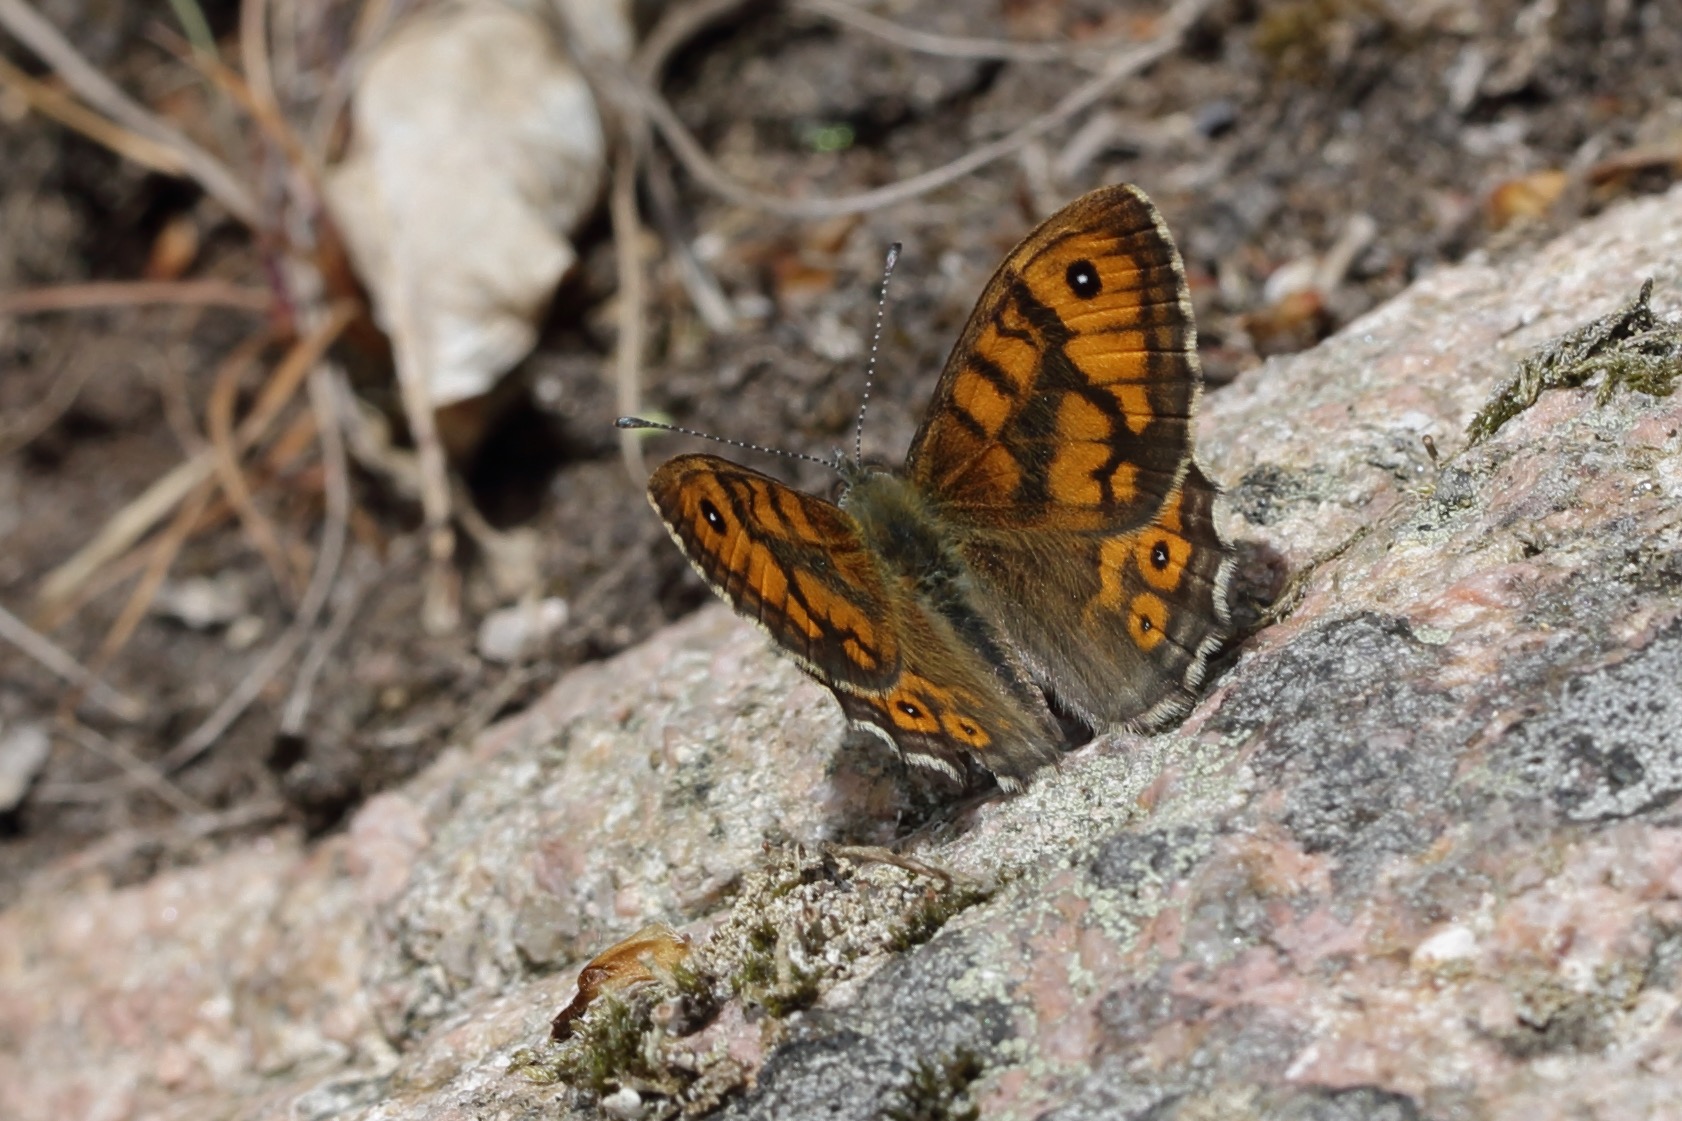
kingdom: Animalia
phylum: Arthropoda
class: Insecta
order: Lepidoptera
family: Nymphalidae
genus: Pararge
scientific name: Pararge Lasiommata megera
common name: Vejrandøje
